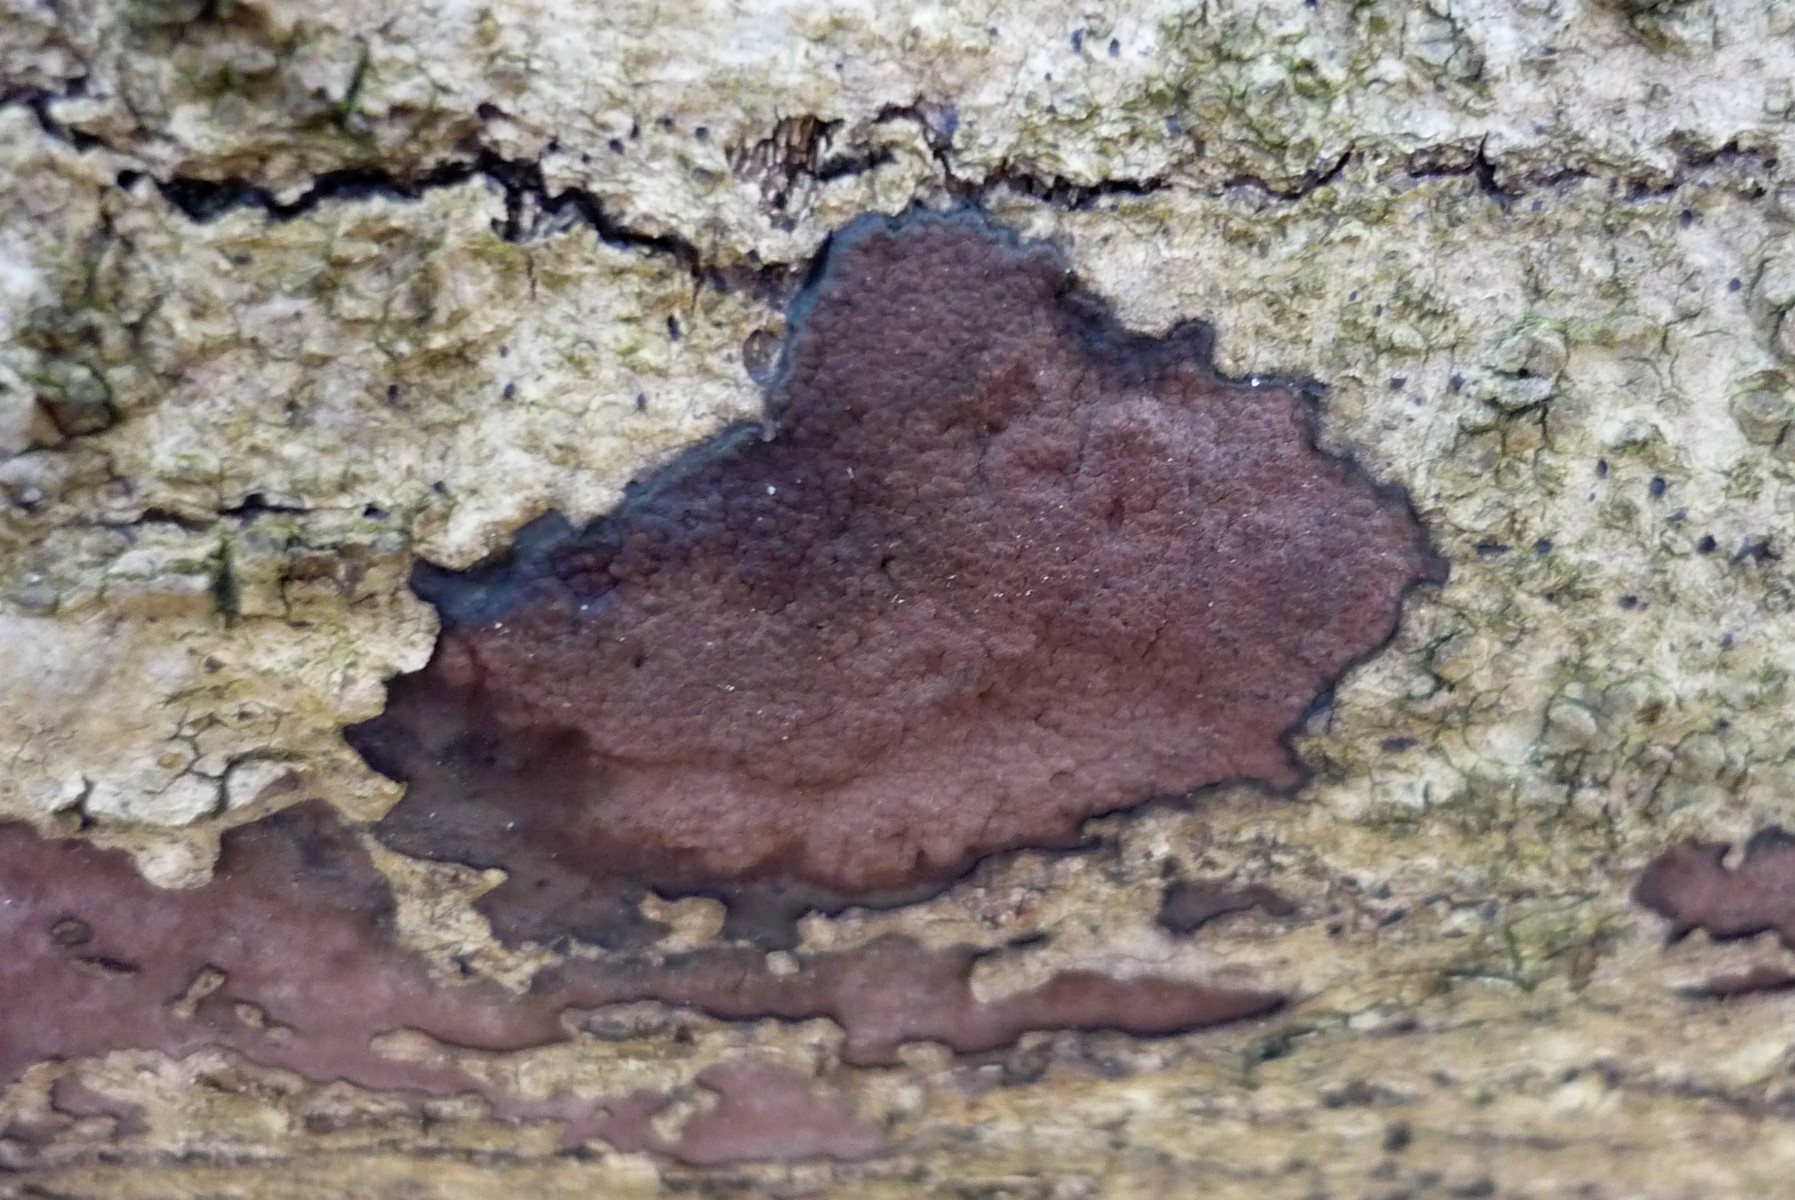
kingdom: Fungi
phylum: Ascomycota
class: Sordariomycetes
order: Xylariales
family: Hypoxylaceae
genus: Hypoxylon
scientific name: Hypoxylon petriniae
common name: nedsænket kulbær
